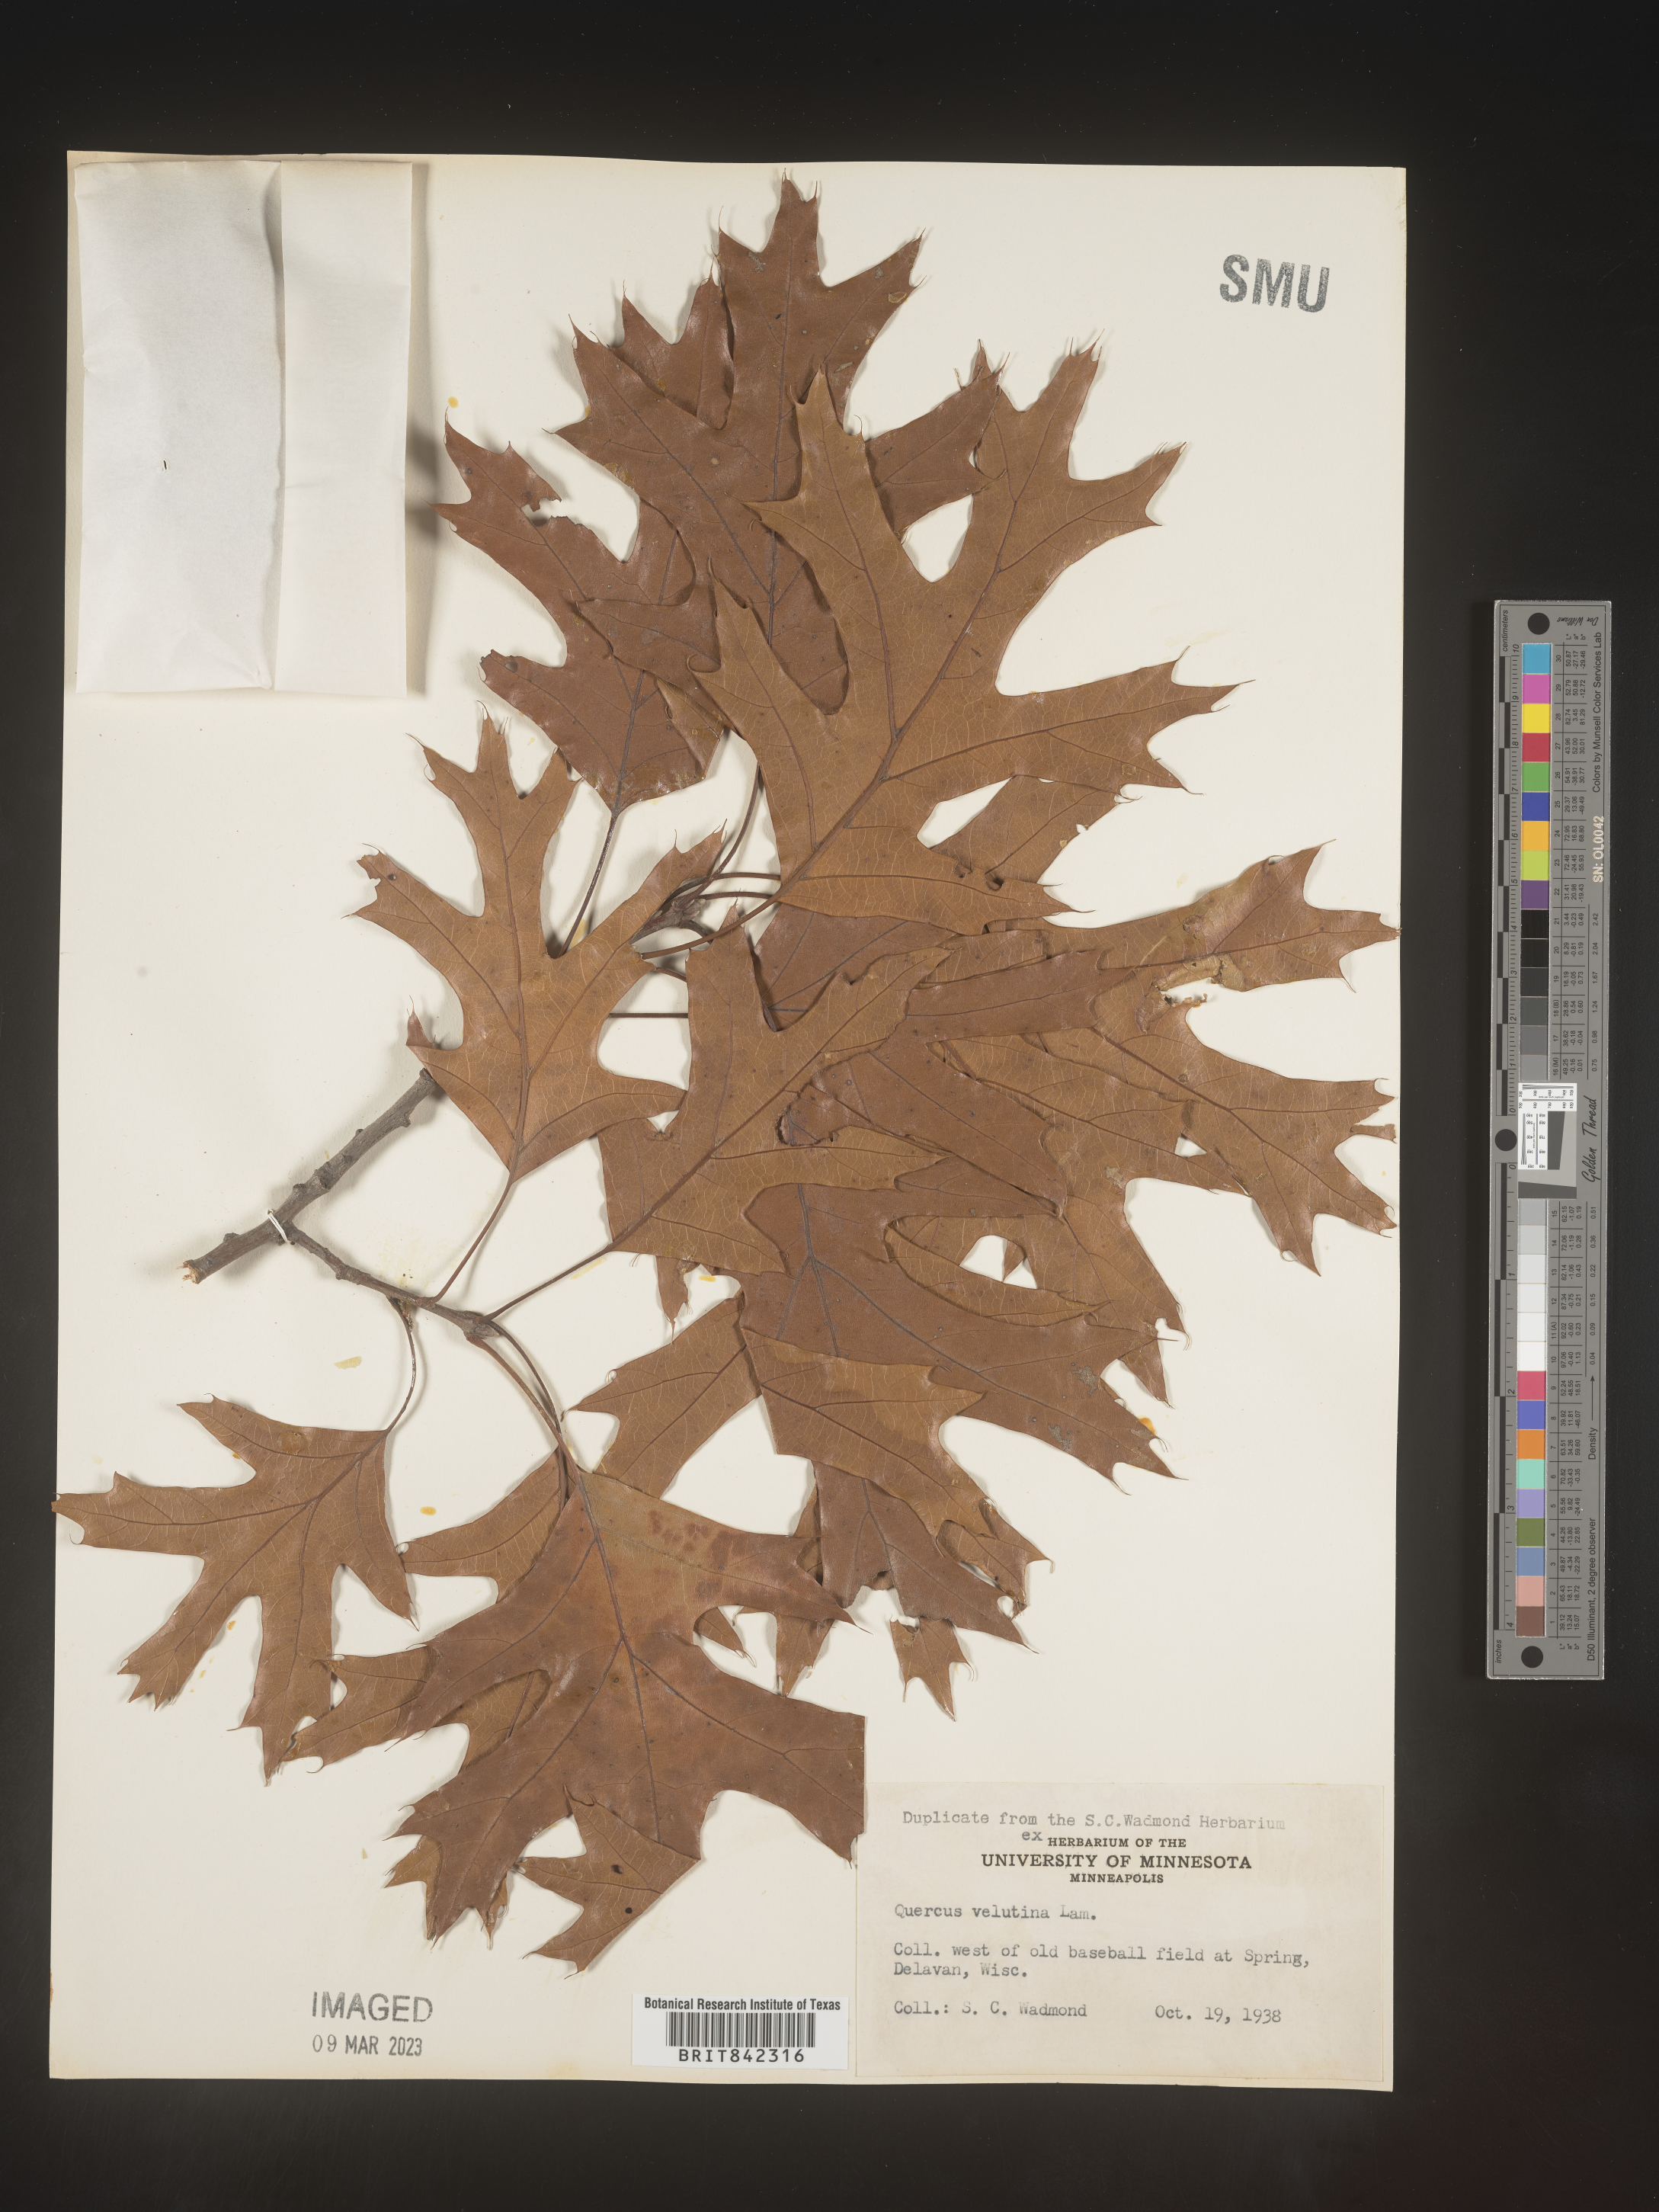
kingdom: Plantae
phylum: Tracheophyta
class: Magnoliopsida
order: Fagales
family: Fagaceae
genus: Quercus
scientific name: Quercus velutina
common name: Black oak
